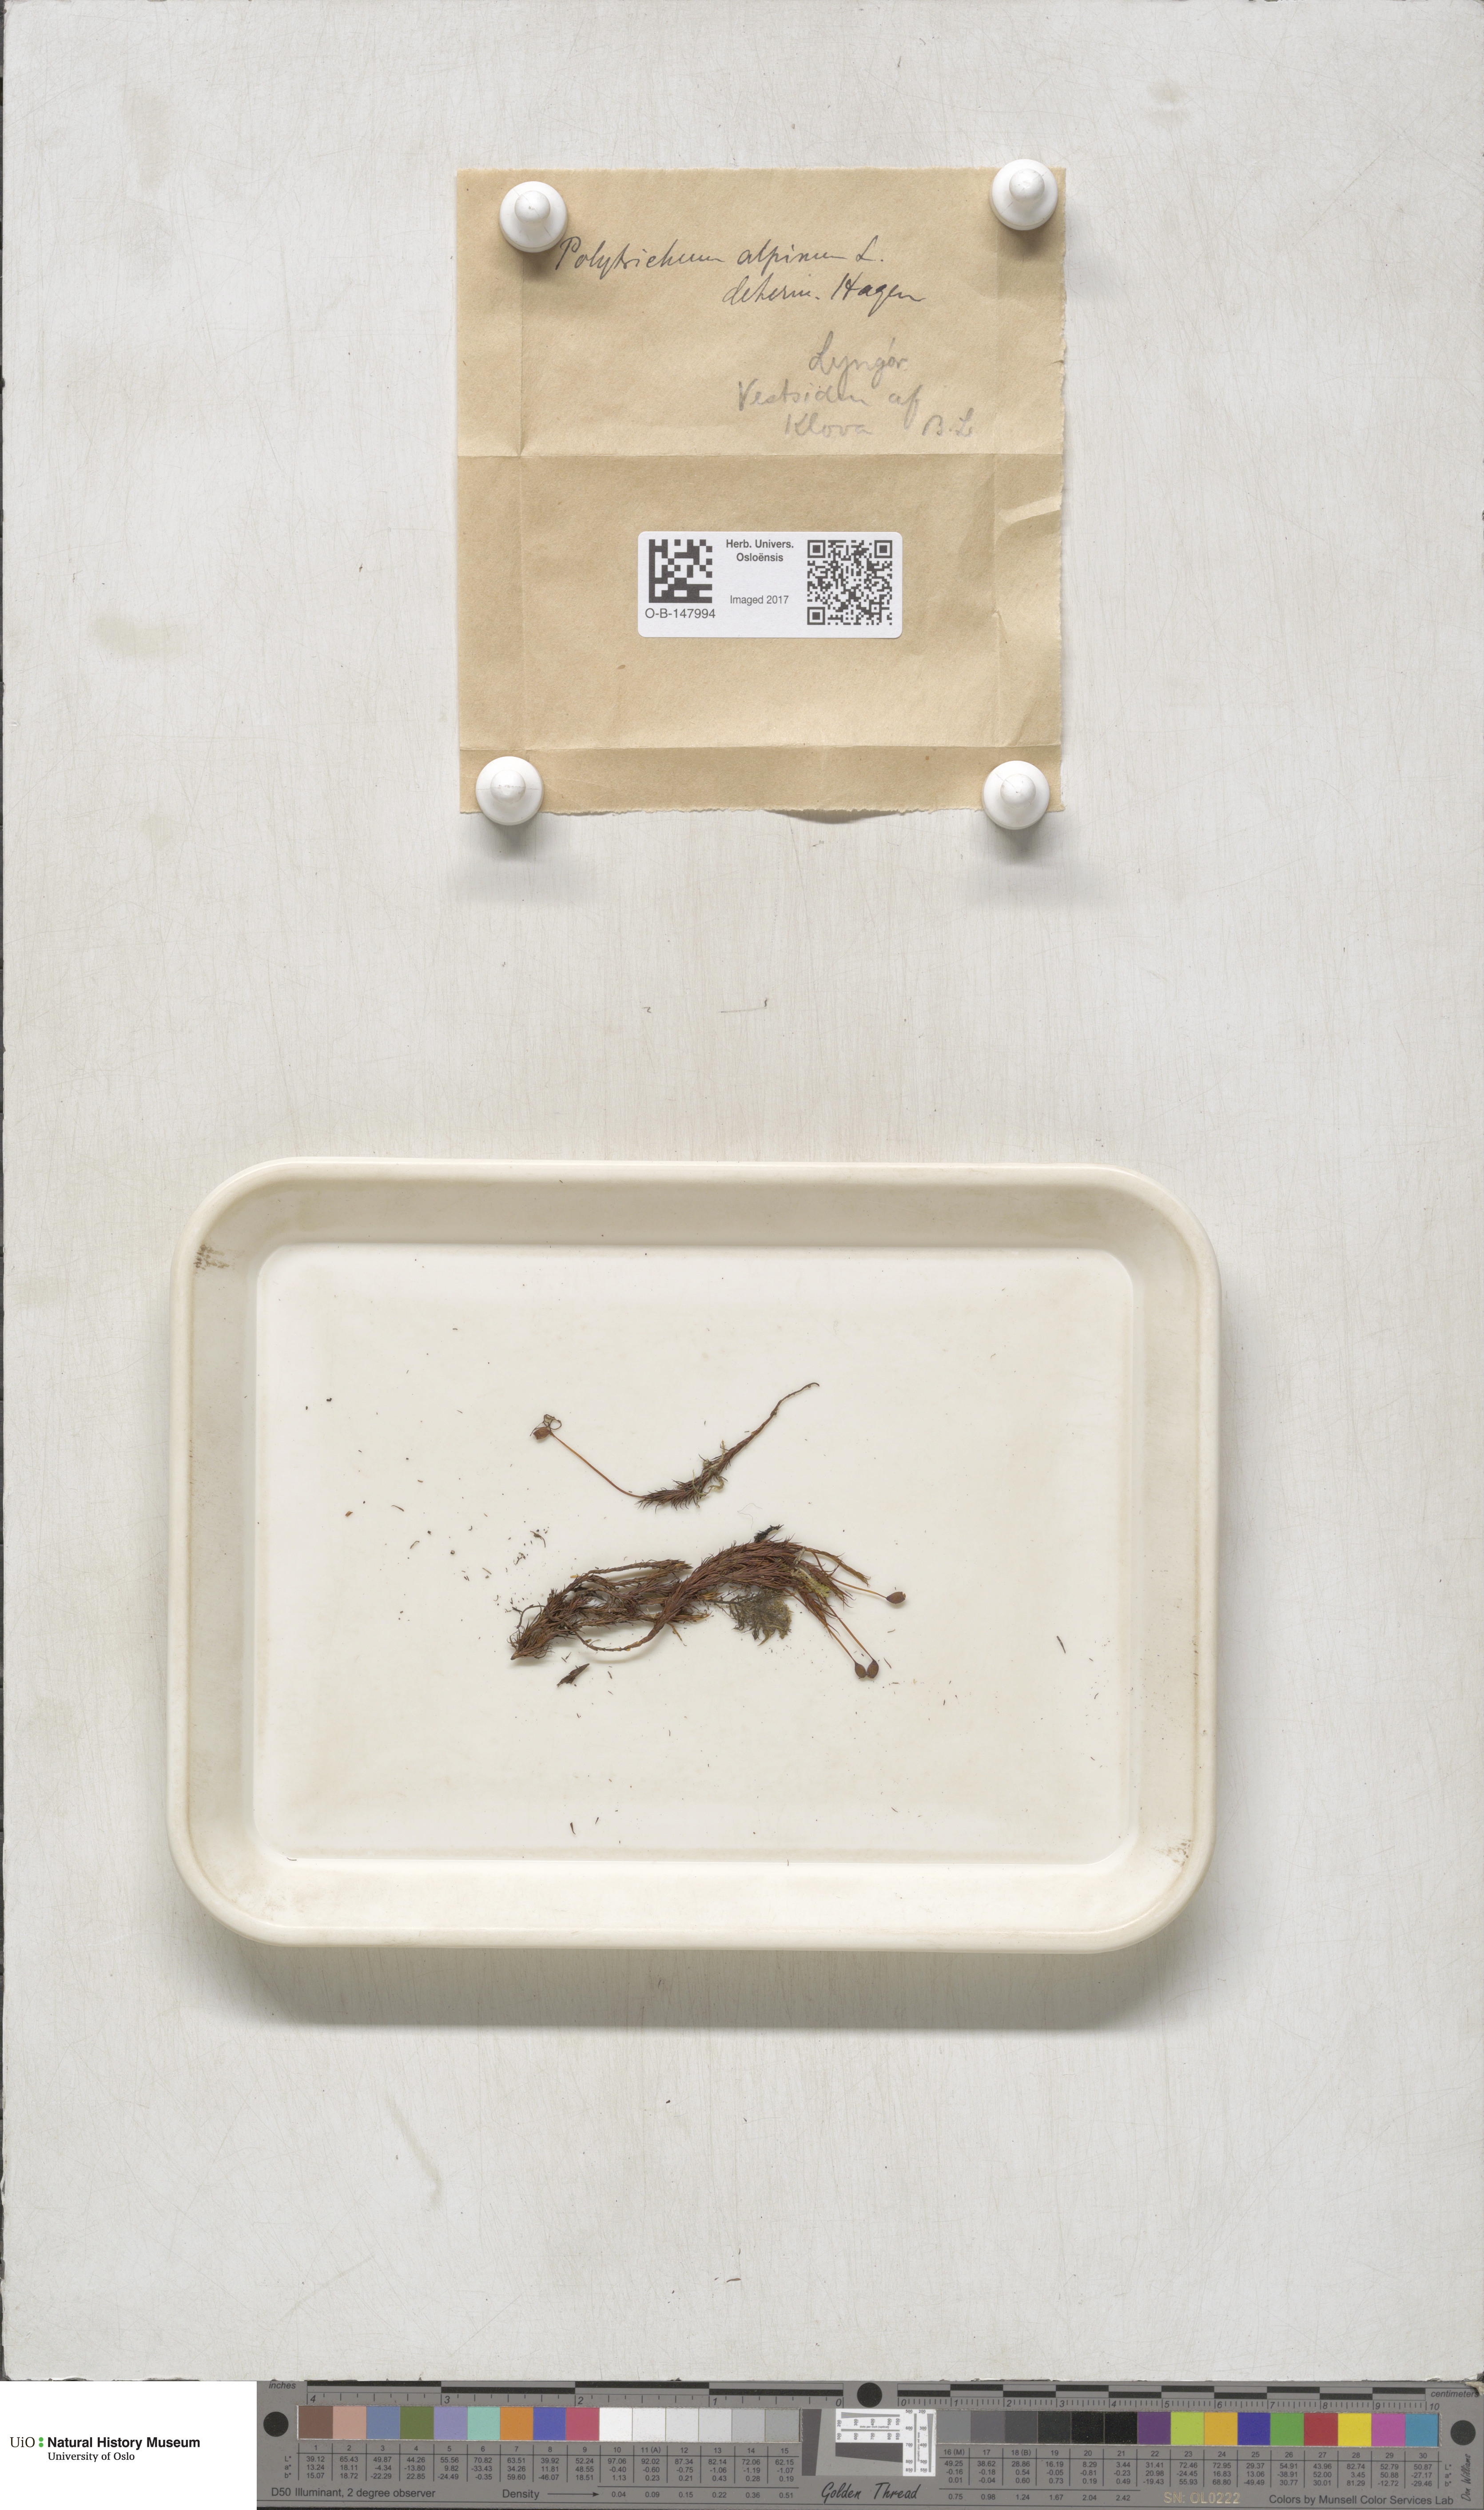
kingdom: Plantae
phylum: Bryophyta
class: Polytrichopsida
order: Polytrichales
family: Polytrichaceae
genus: Polytrichastrum
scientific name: Polytrichastrum alpinum
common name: Alpine haircap
